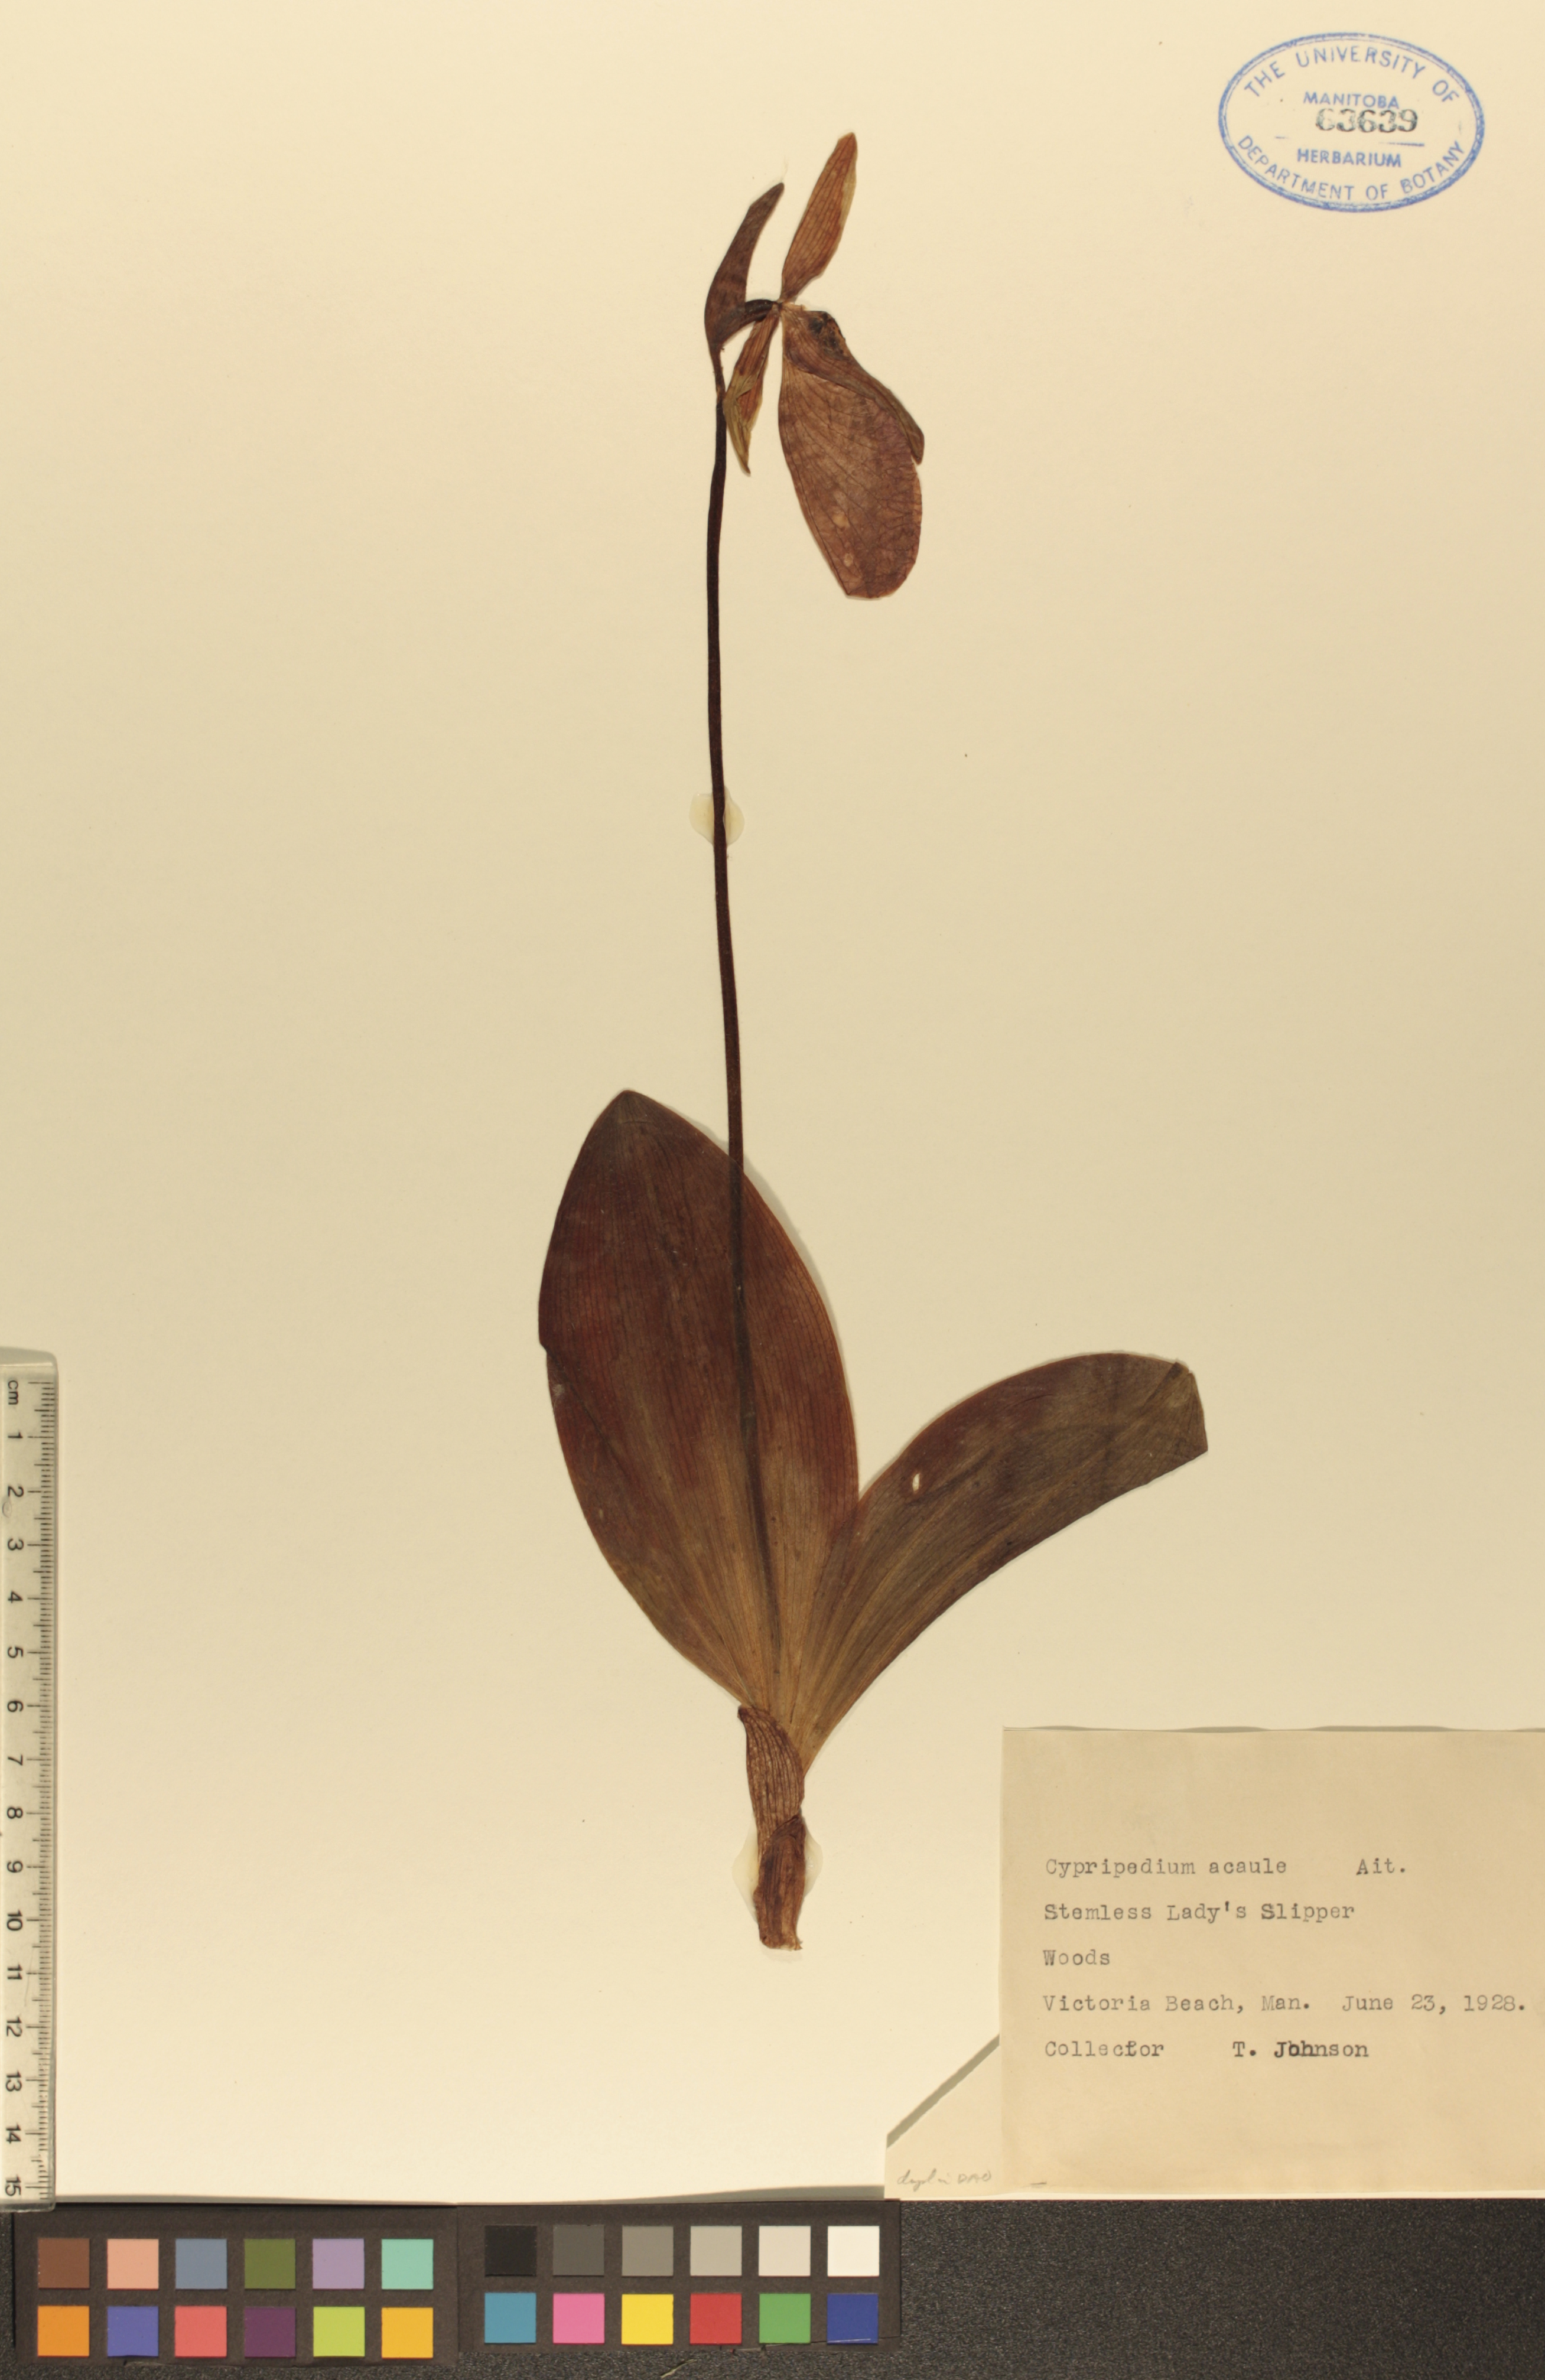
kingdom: Plantae
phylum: Tracheophyta
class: Liliopsida
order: Asparagales
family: Orchidaceae
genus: Cypripedium
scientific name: Cypripedium acaule
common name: Pink lady's-slipper
